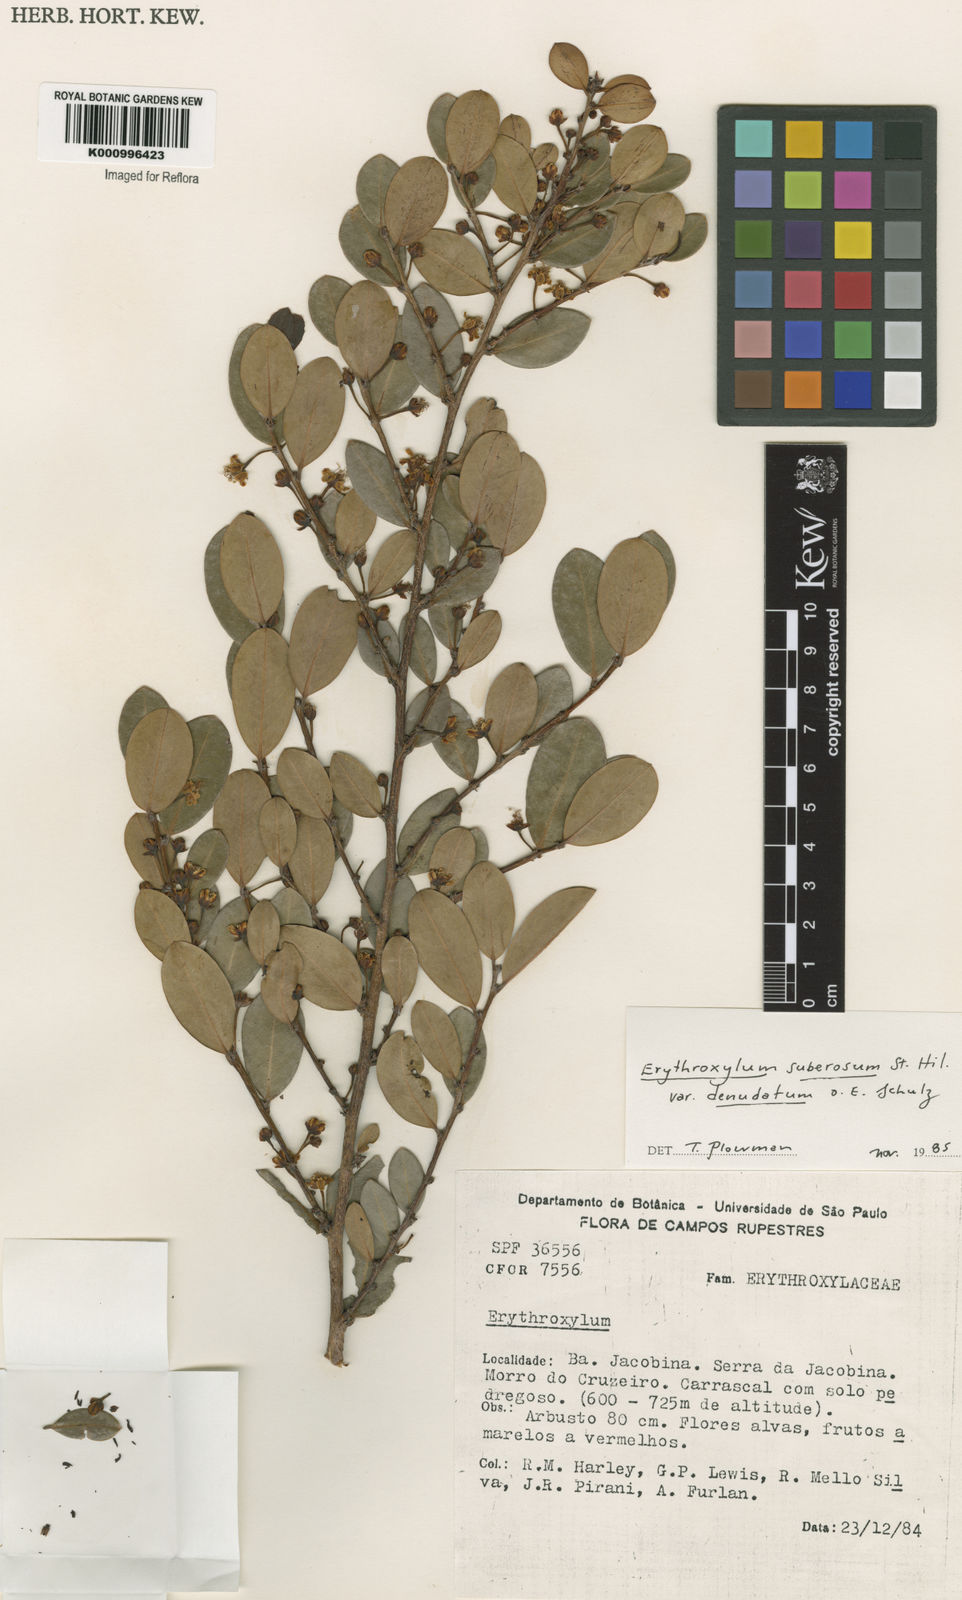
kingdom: Plantae
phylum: Tracheophyta
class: Magnoliopsida
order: Malpighiales
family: Erythroxylaceae
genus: Erythroxylum
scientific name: Erythroxylum rimosum
